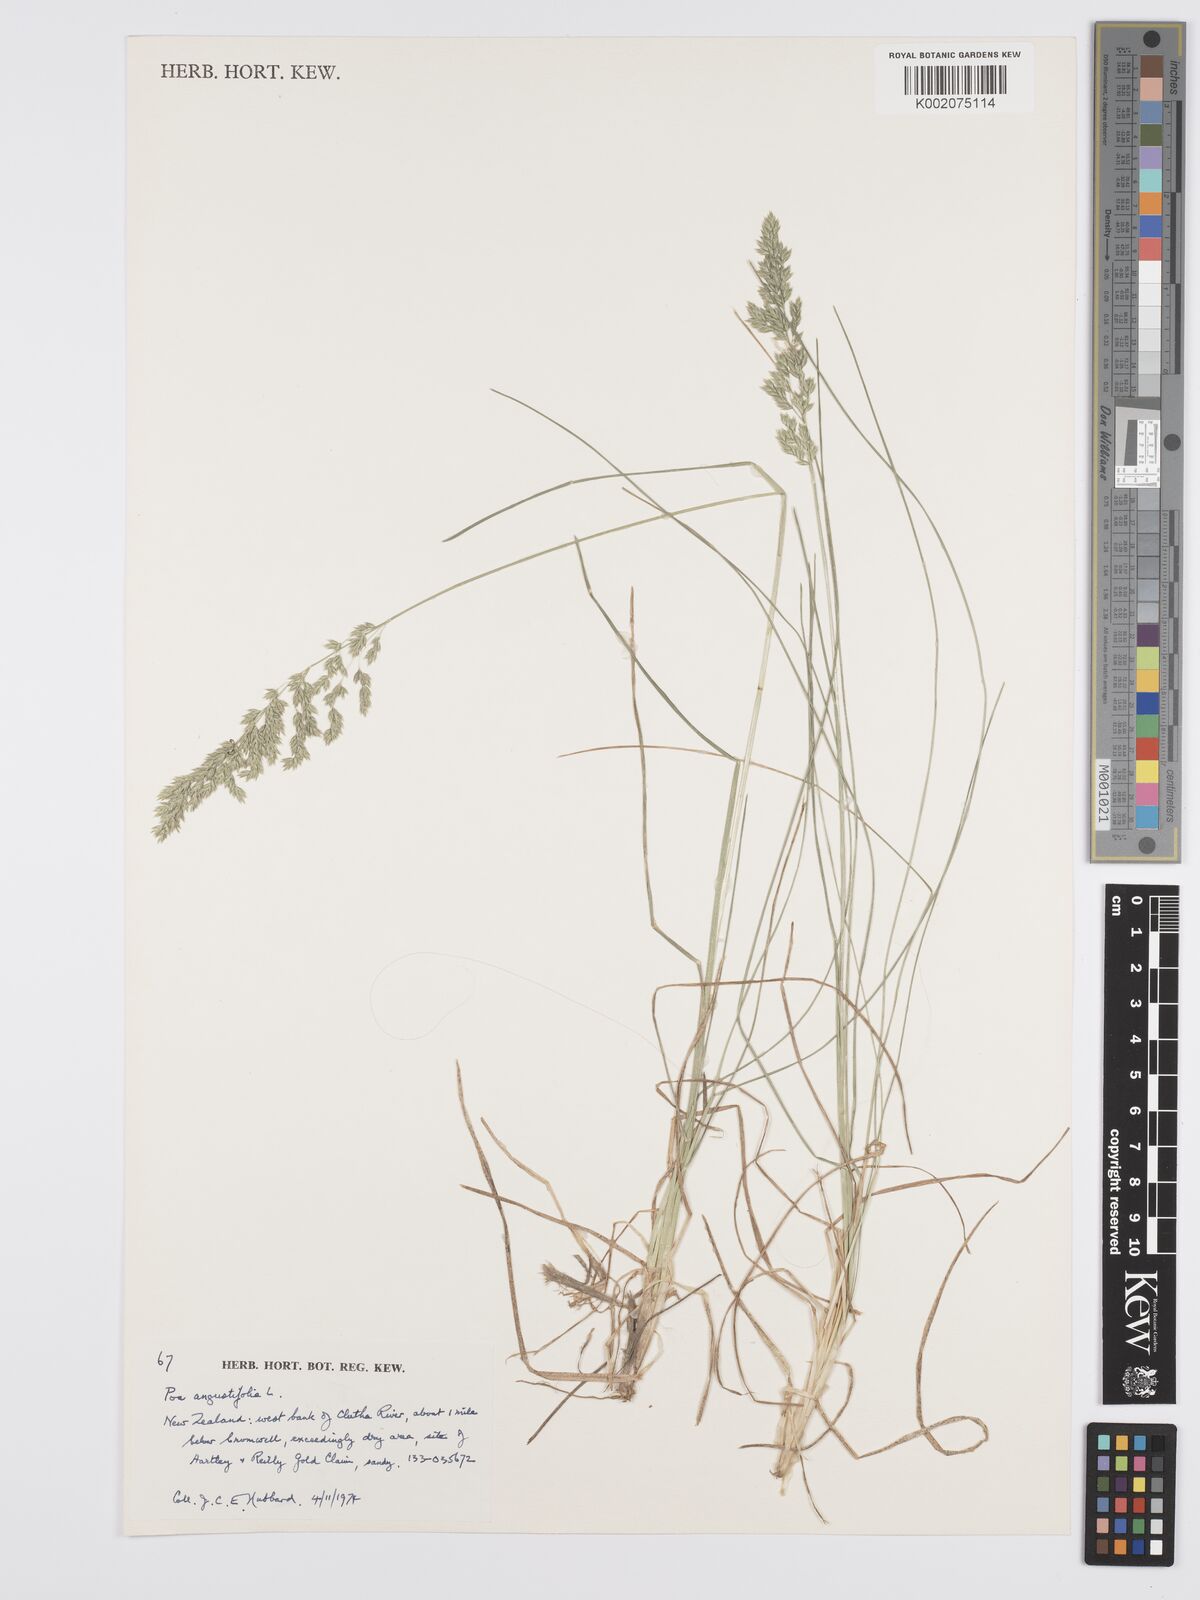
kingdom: Plantae
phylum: Tracheophyta
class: Liliopsida
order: Poales
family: Poaceae
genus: Poa
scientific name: Poa angustifolia
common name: Narrow-leaved meadow-grass
